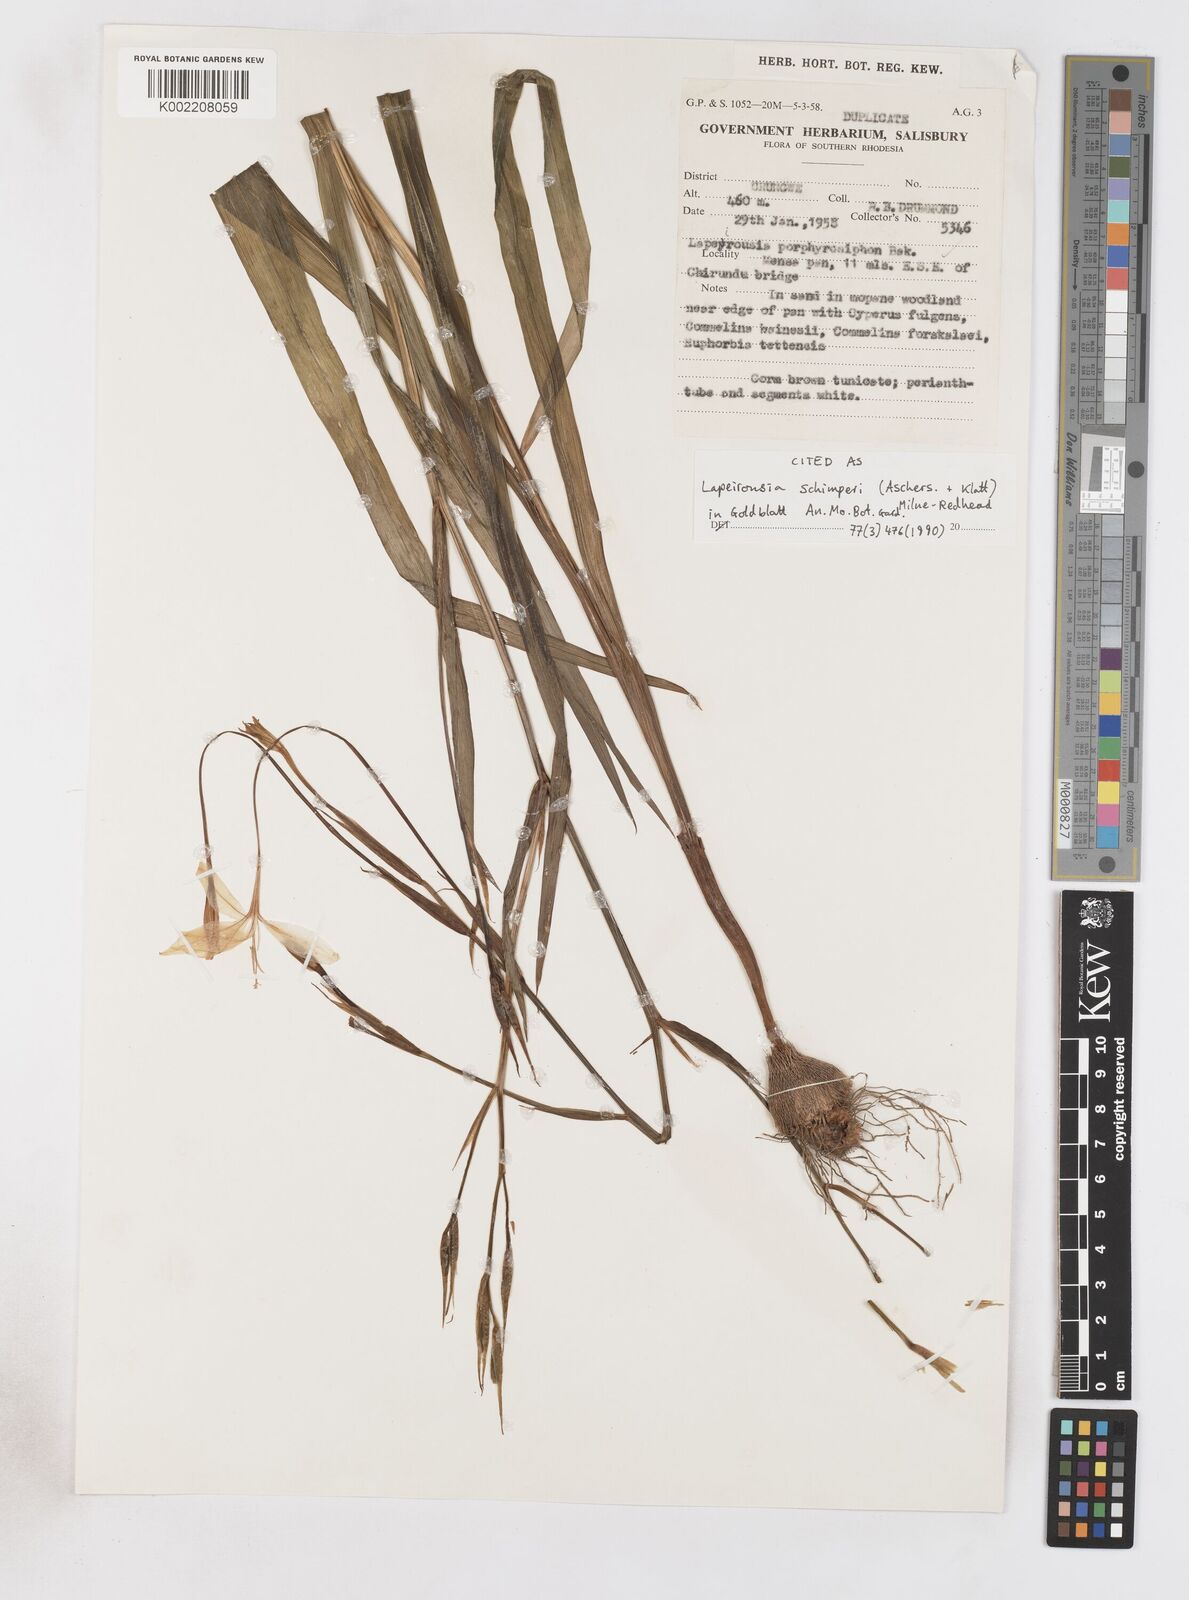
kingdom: Plantae
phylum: Tracheophyta
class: Liliopsida
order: Asparagales
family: Iridaceae
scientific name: Iridaceae
